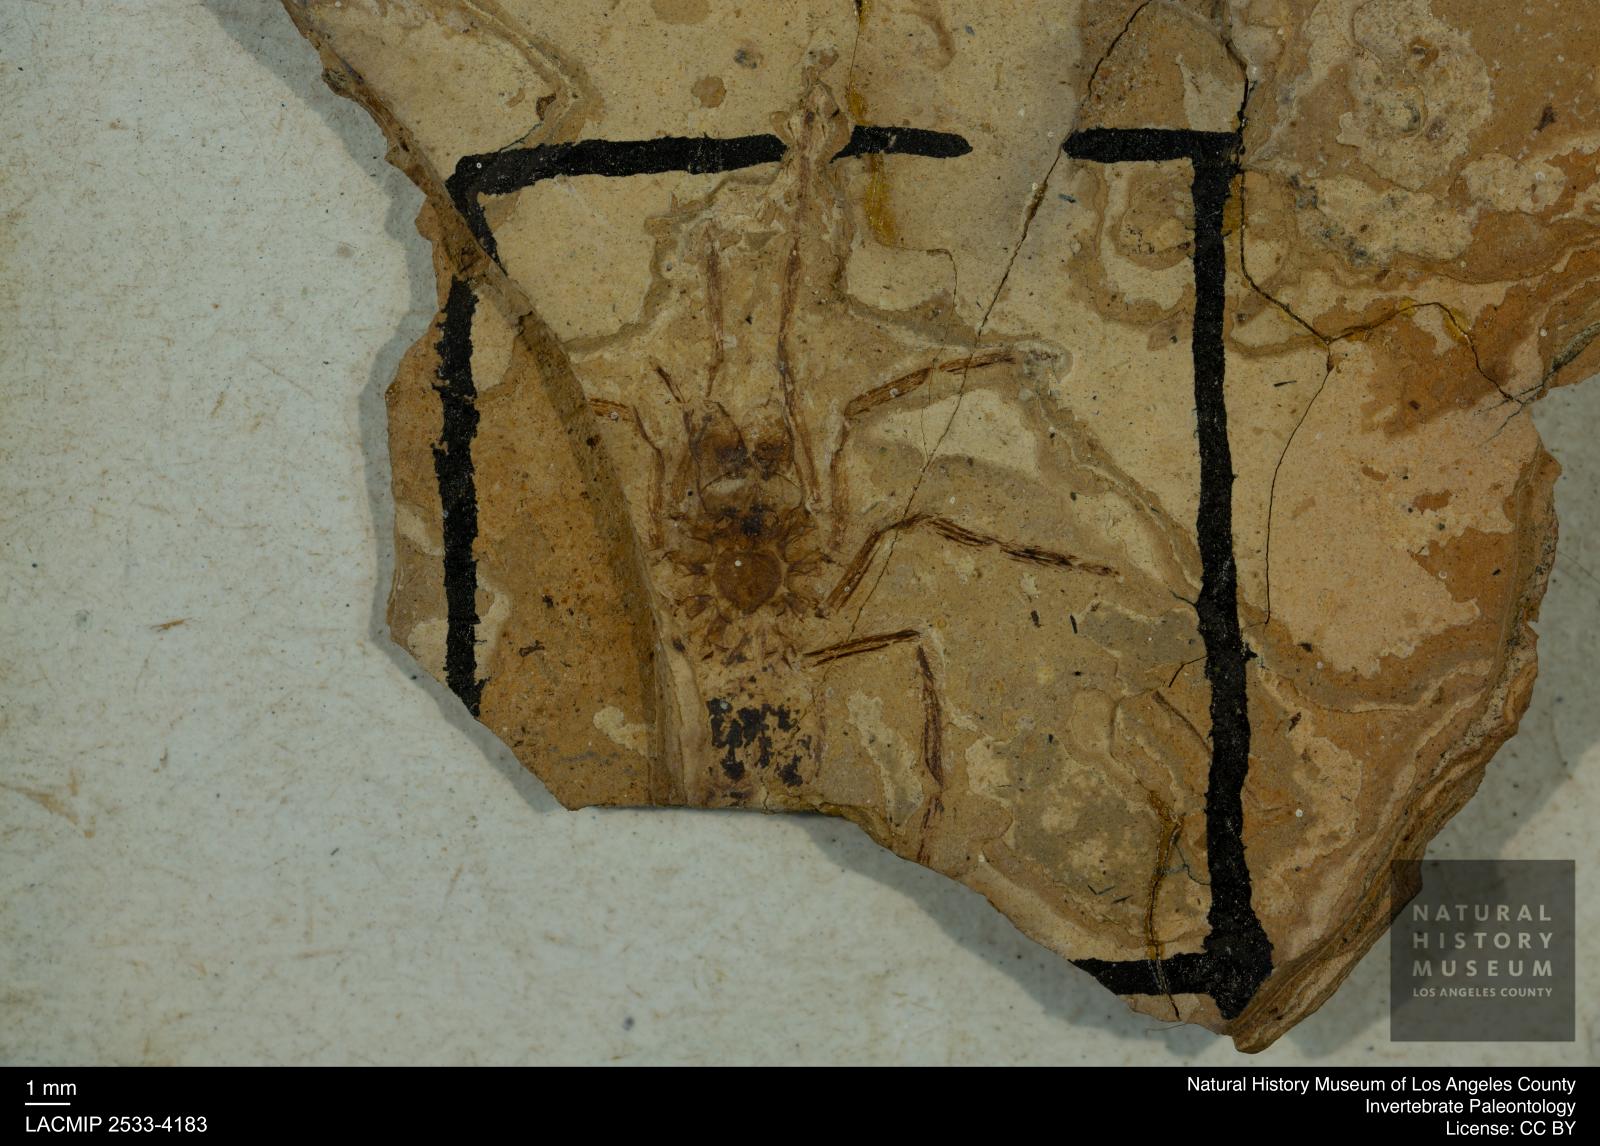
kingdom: Animalia
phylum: Arthropoda
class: Arachnida
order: Araneae
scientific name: Araneae
